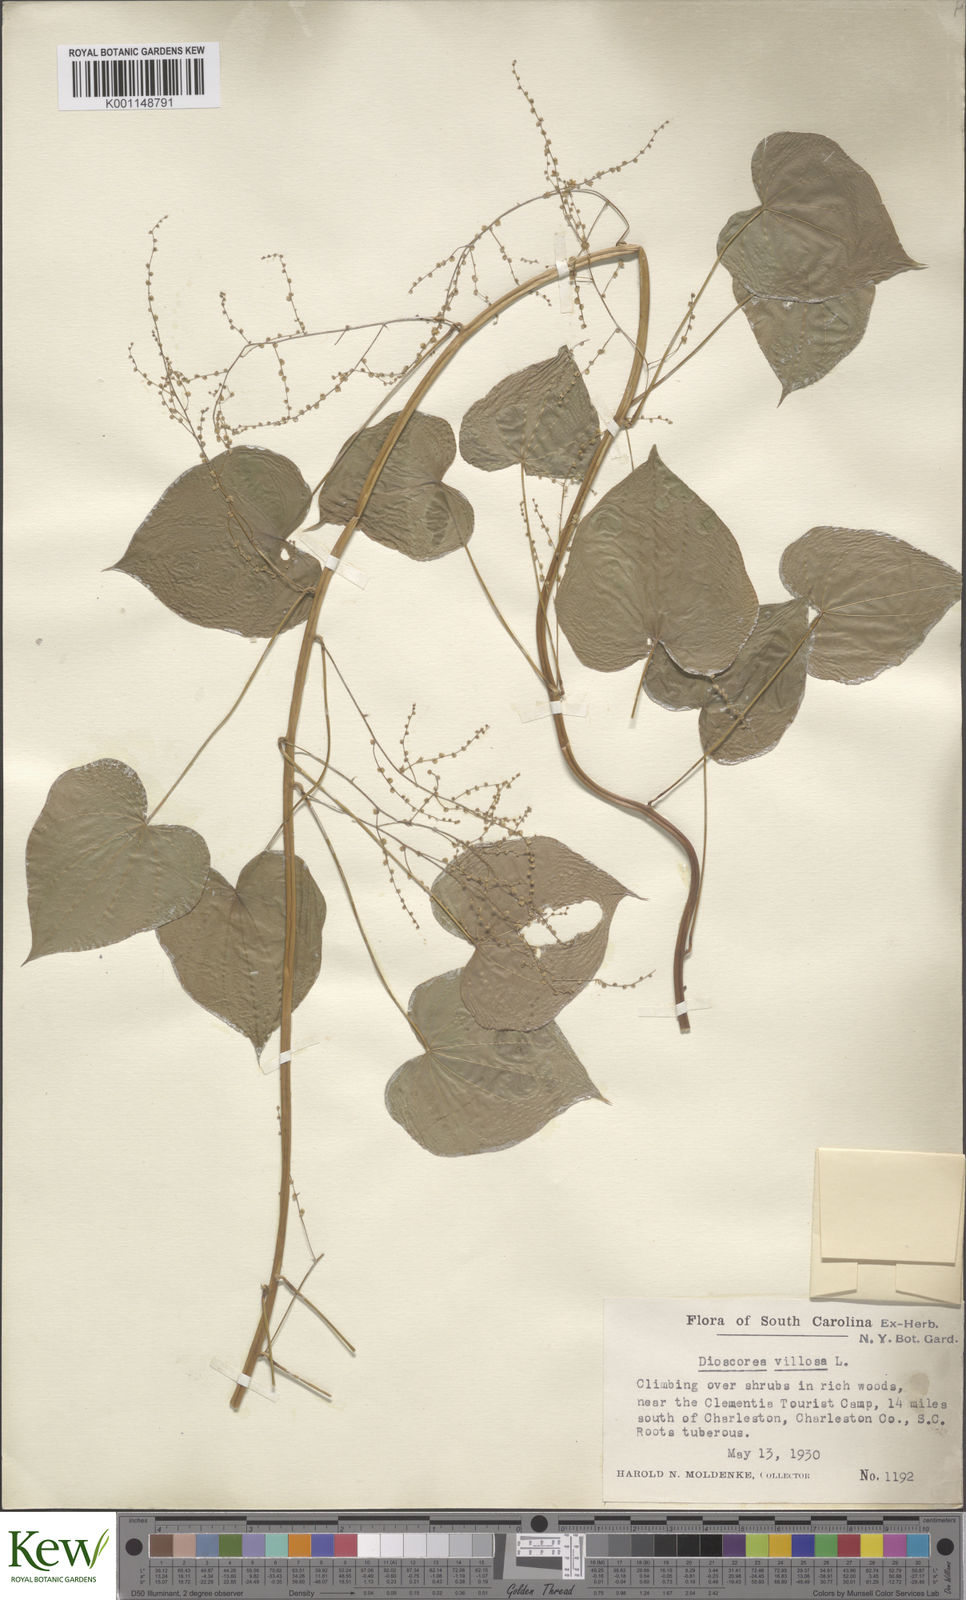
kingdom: Plantae
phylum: Tracheophyta
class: Liliopsida
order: Dioscoreales
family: Dioscoreaceae
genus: Dioscorea
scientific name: Dioscorea villosa
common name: Wild yam
